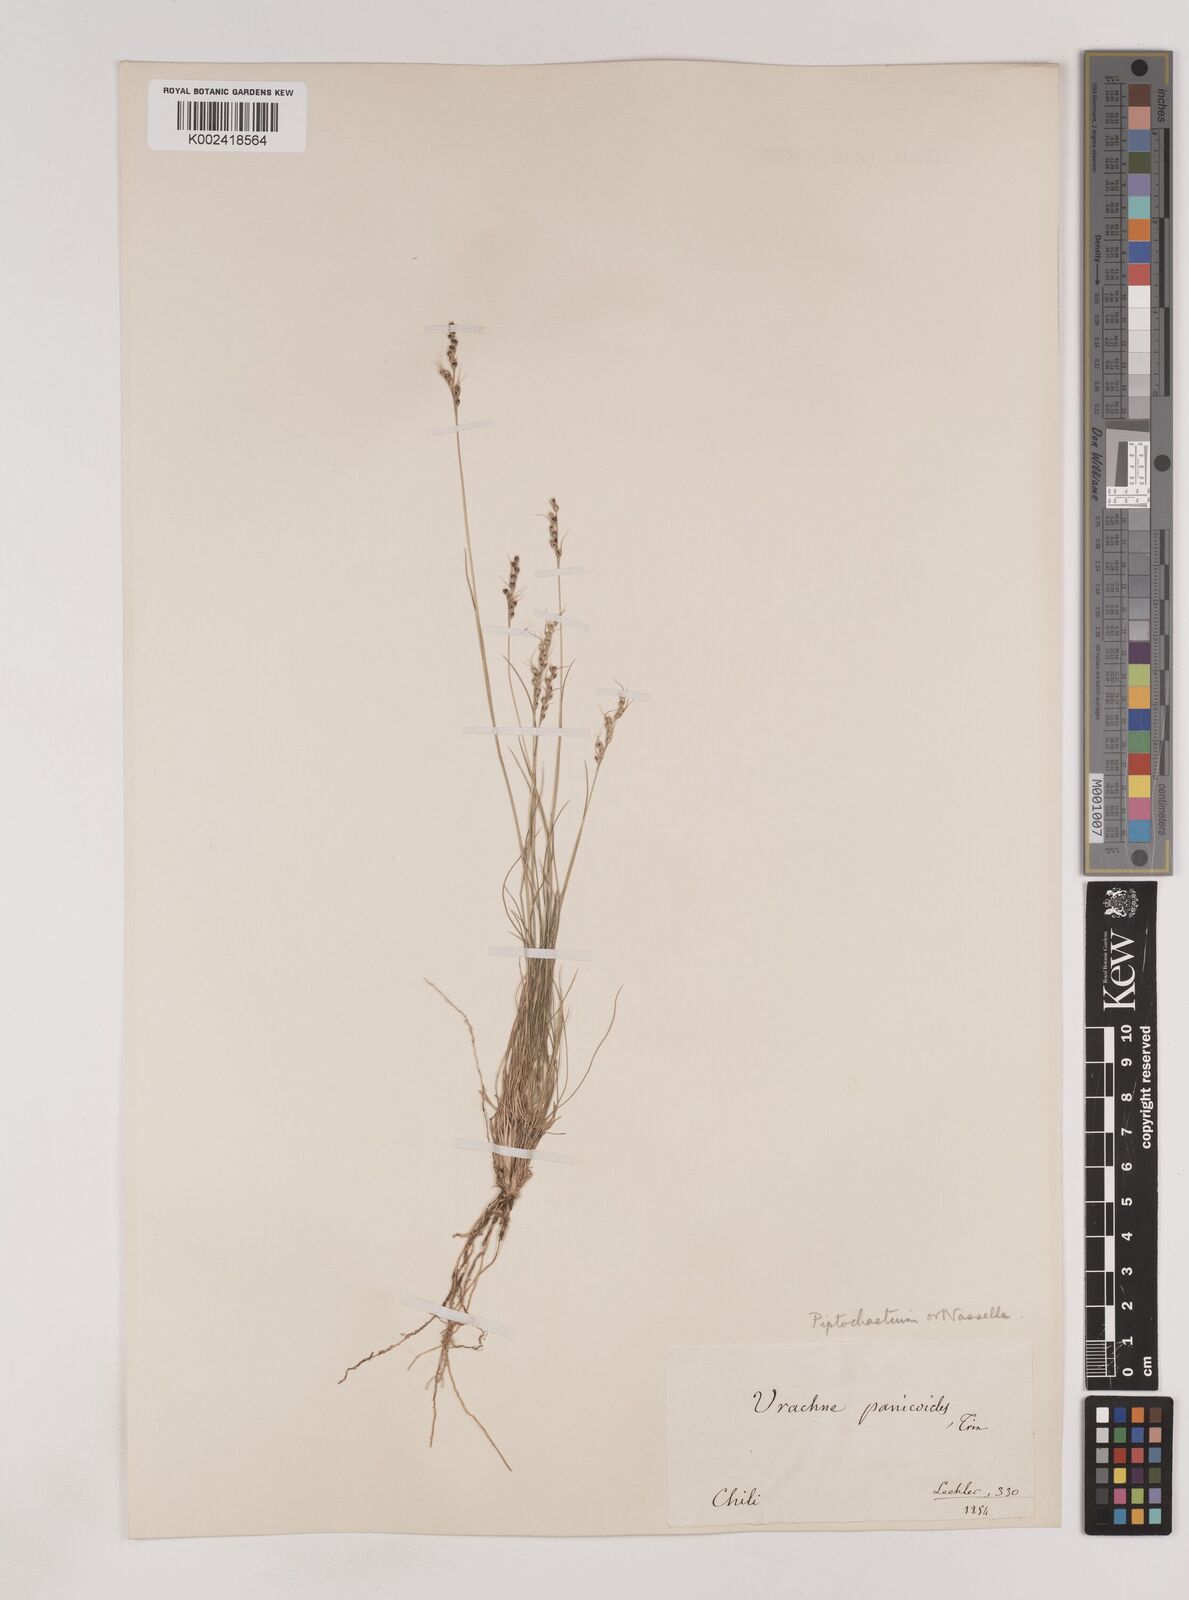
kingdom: Plantae
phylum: Tracheophyta
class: Liliopsida
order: Poales
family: Poaceae
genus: Piptochaetium
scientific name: Piptochaetium montevidense
